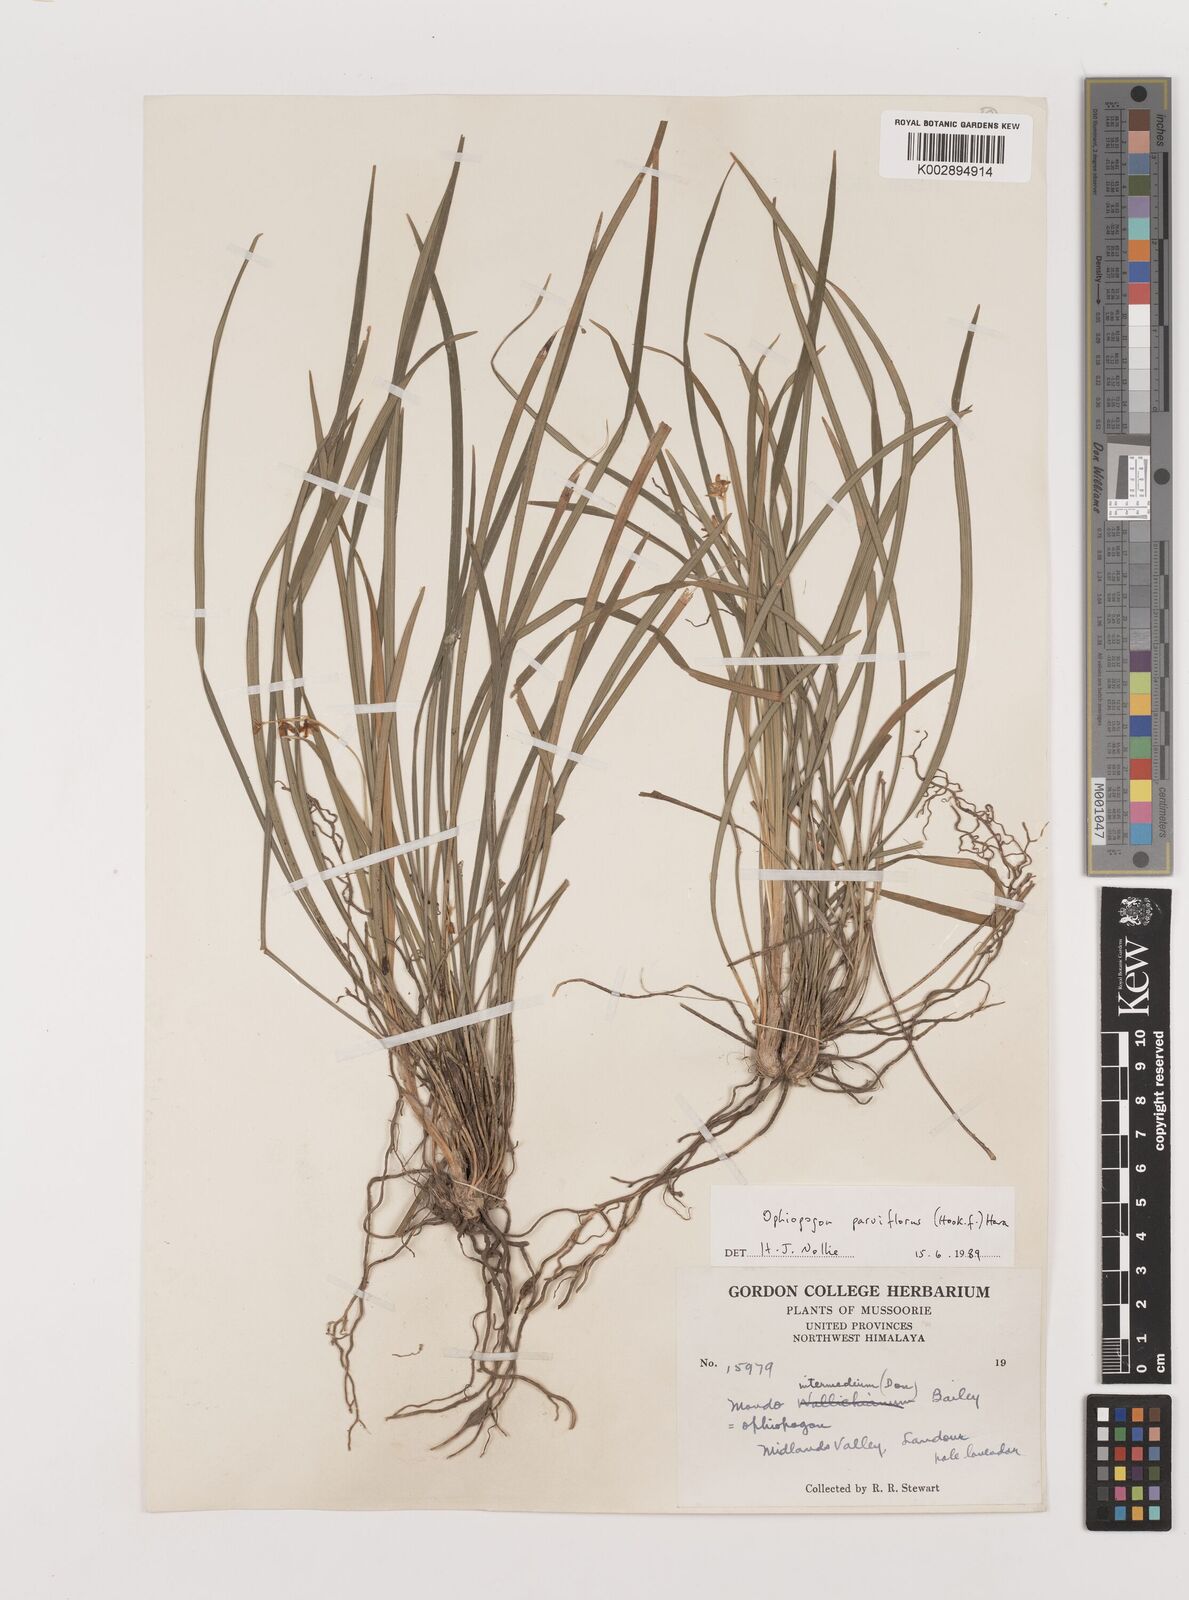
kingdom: Plantae
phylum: Tracheophyta
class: Liliopsida
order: Asparagales
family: Asparagaceae
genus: Ophiopogon
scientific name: Ophiopogon intermedius
